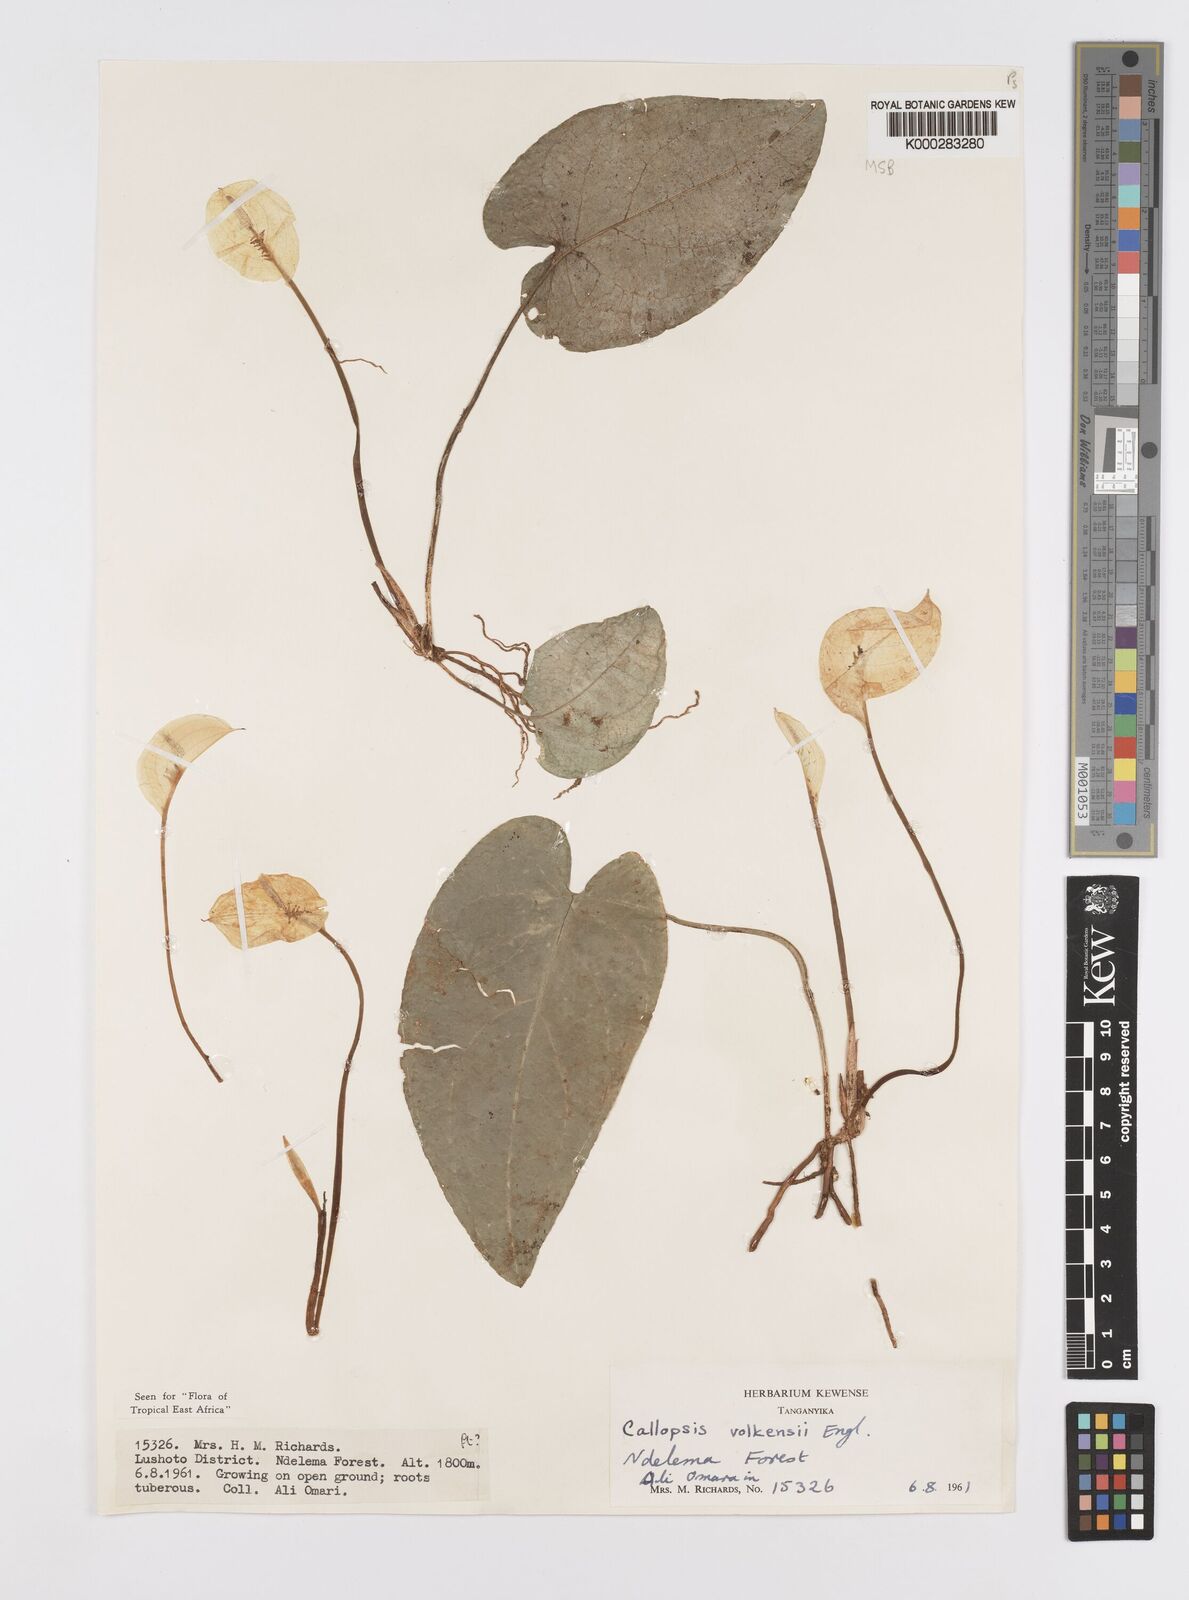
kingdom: Plantae
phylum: Tracheophyta
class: Liliopsida
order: Alismatales
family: Araceae
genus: Callopsis
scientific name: Callopsis volkensii
